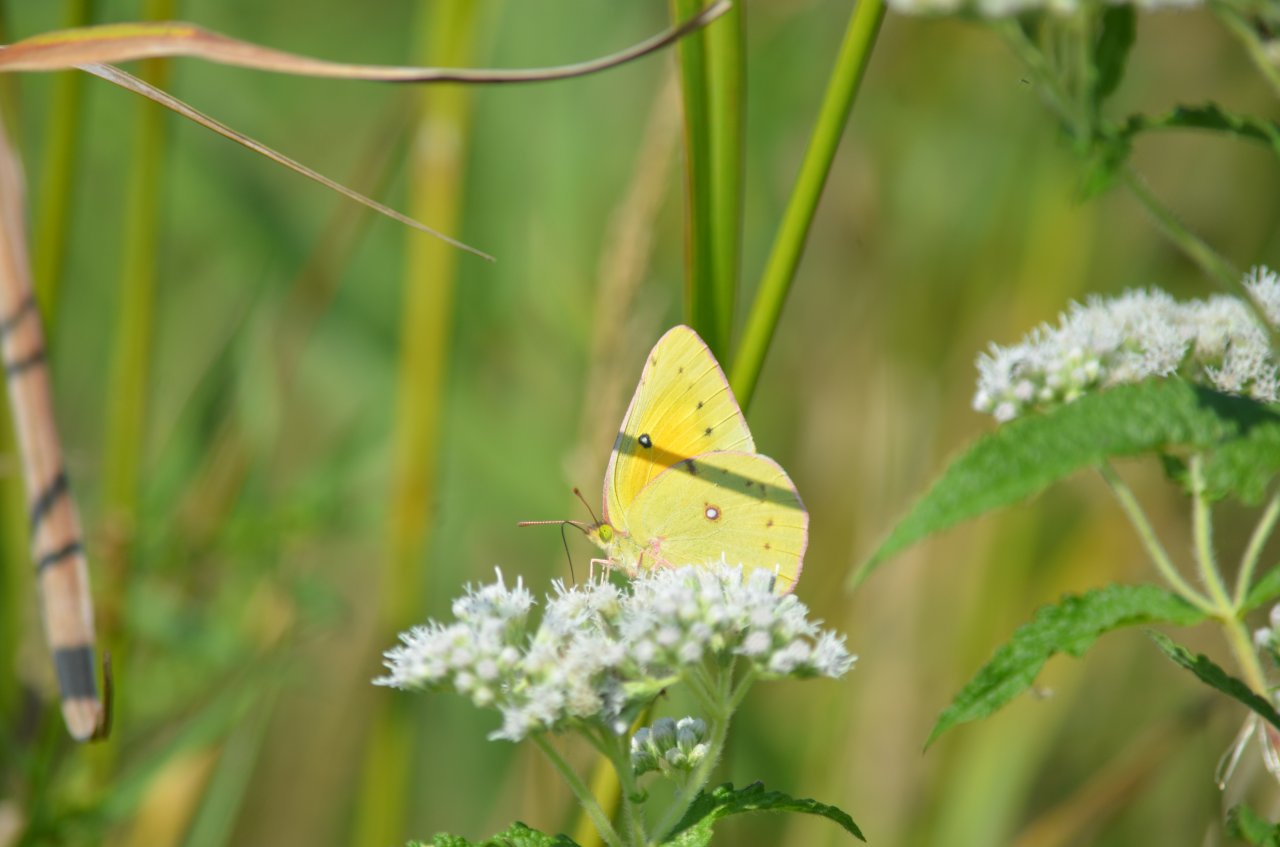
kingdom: Animalia
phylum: Arthropoda
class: Insecta
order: Lepidoptera
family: Pieridae
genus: Colias
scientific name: Colias eurytheme
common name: Orange Sulphur
